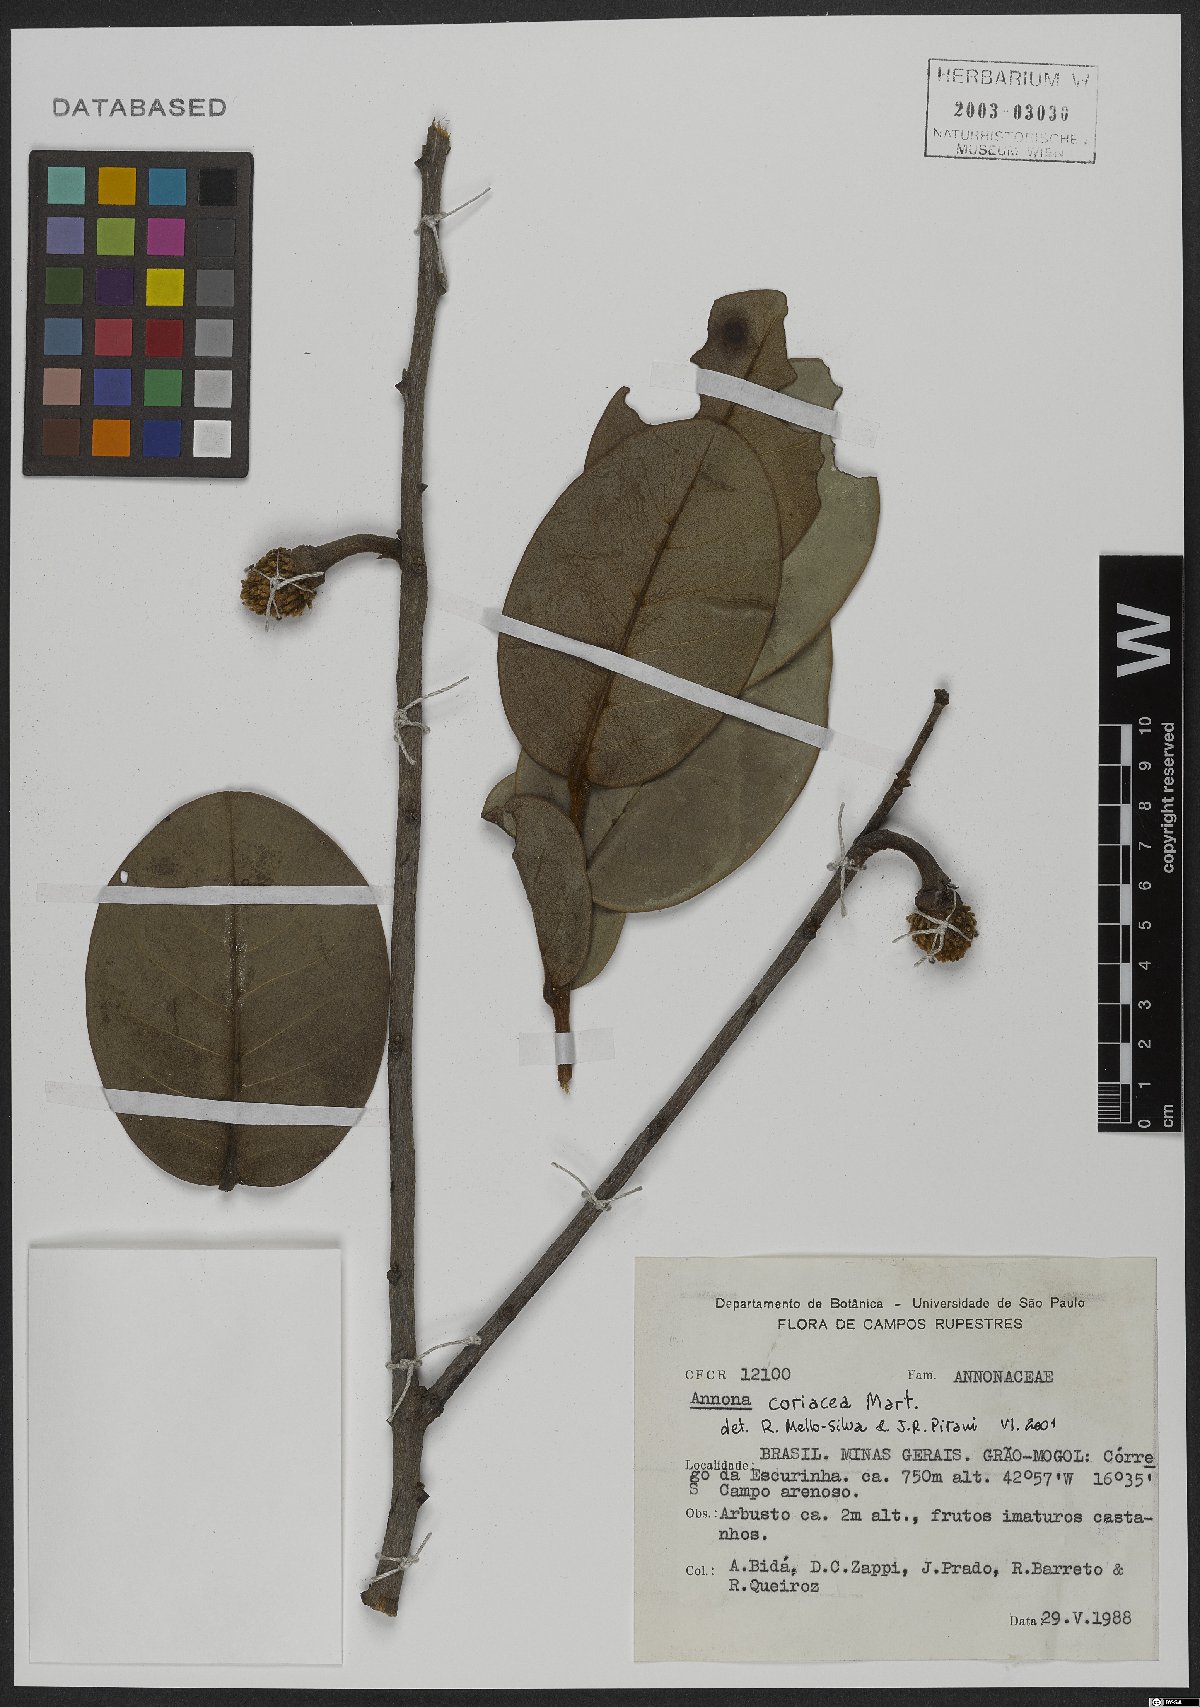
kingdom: Plantae
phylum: Tracheophyta
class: Magnoliopsida
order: Magnoliales
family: Annonaceae
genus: Annona
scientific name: Annona coriacea
